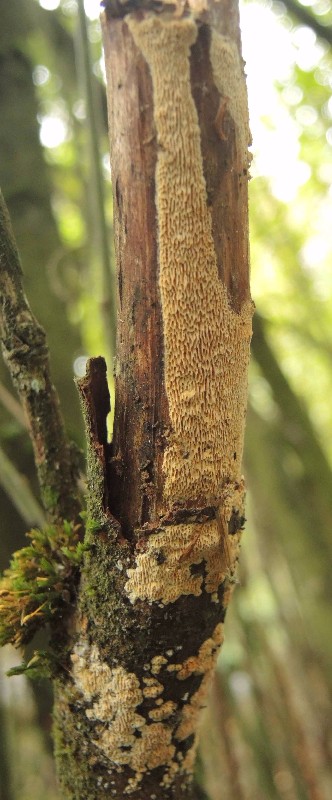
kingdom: Fungi
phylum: Basidiomycota
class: Agaricomycetes
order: Polyporales
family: Fomitopsidaceae
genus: Antrodia
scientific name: Antrodia macra
